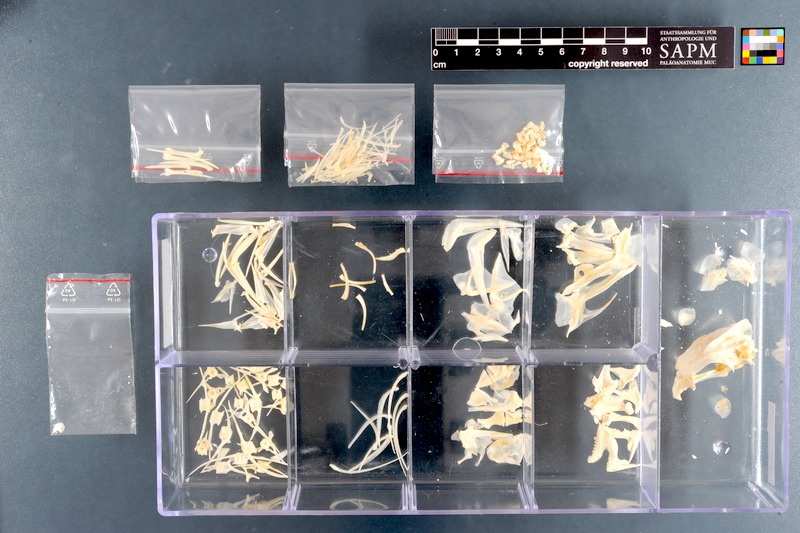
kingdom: Animalia
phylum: Chordata
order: Perciformes
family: Sparidae
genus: Cymatoceps
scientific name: Cymatoceps nasutus
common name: Black musselcracker
